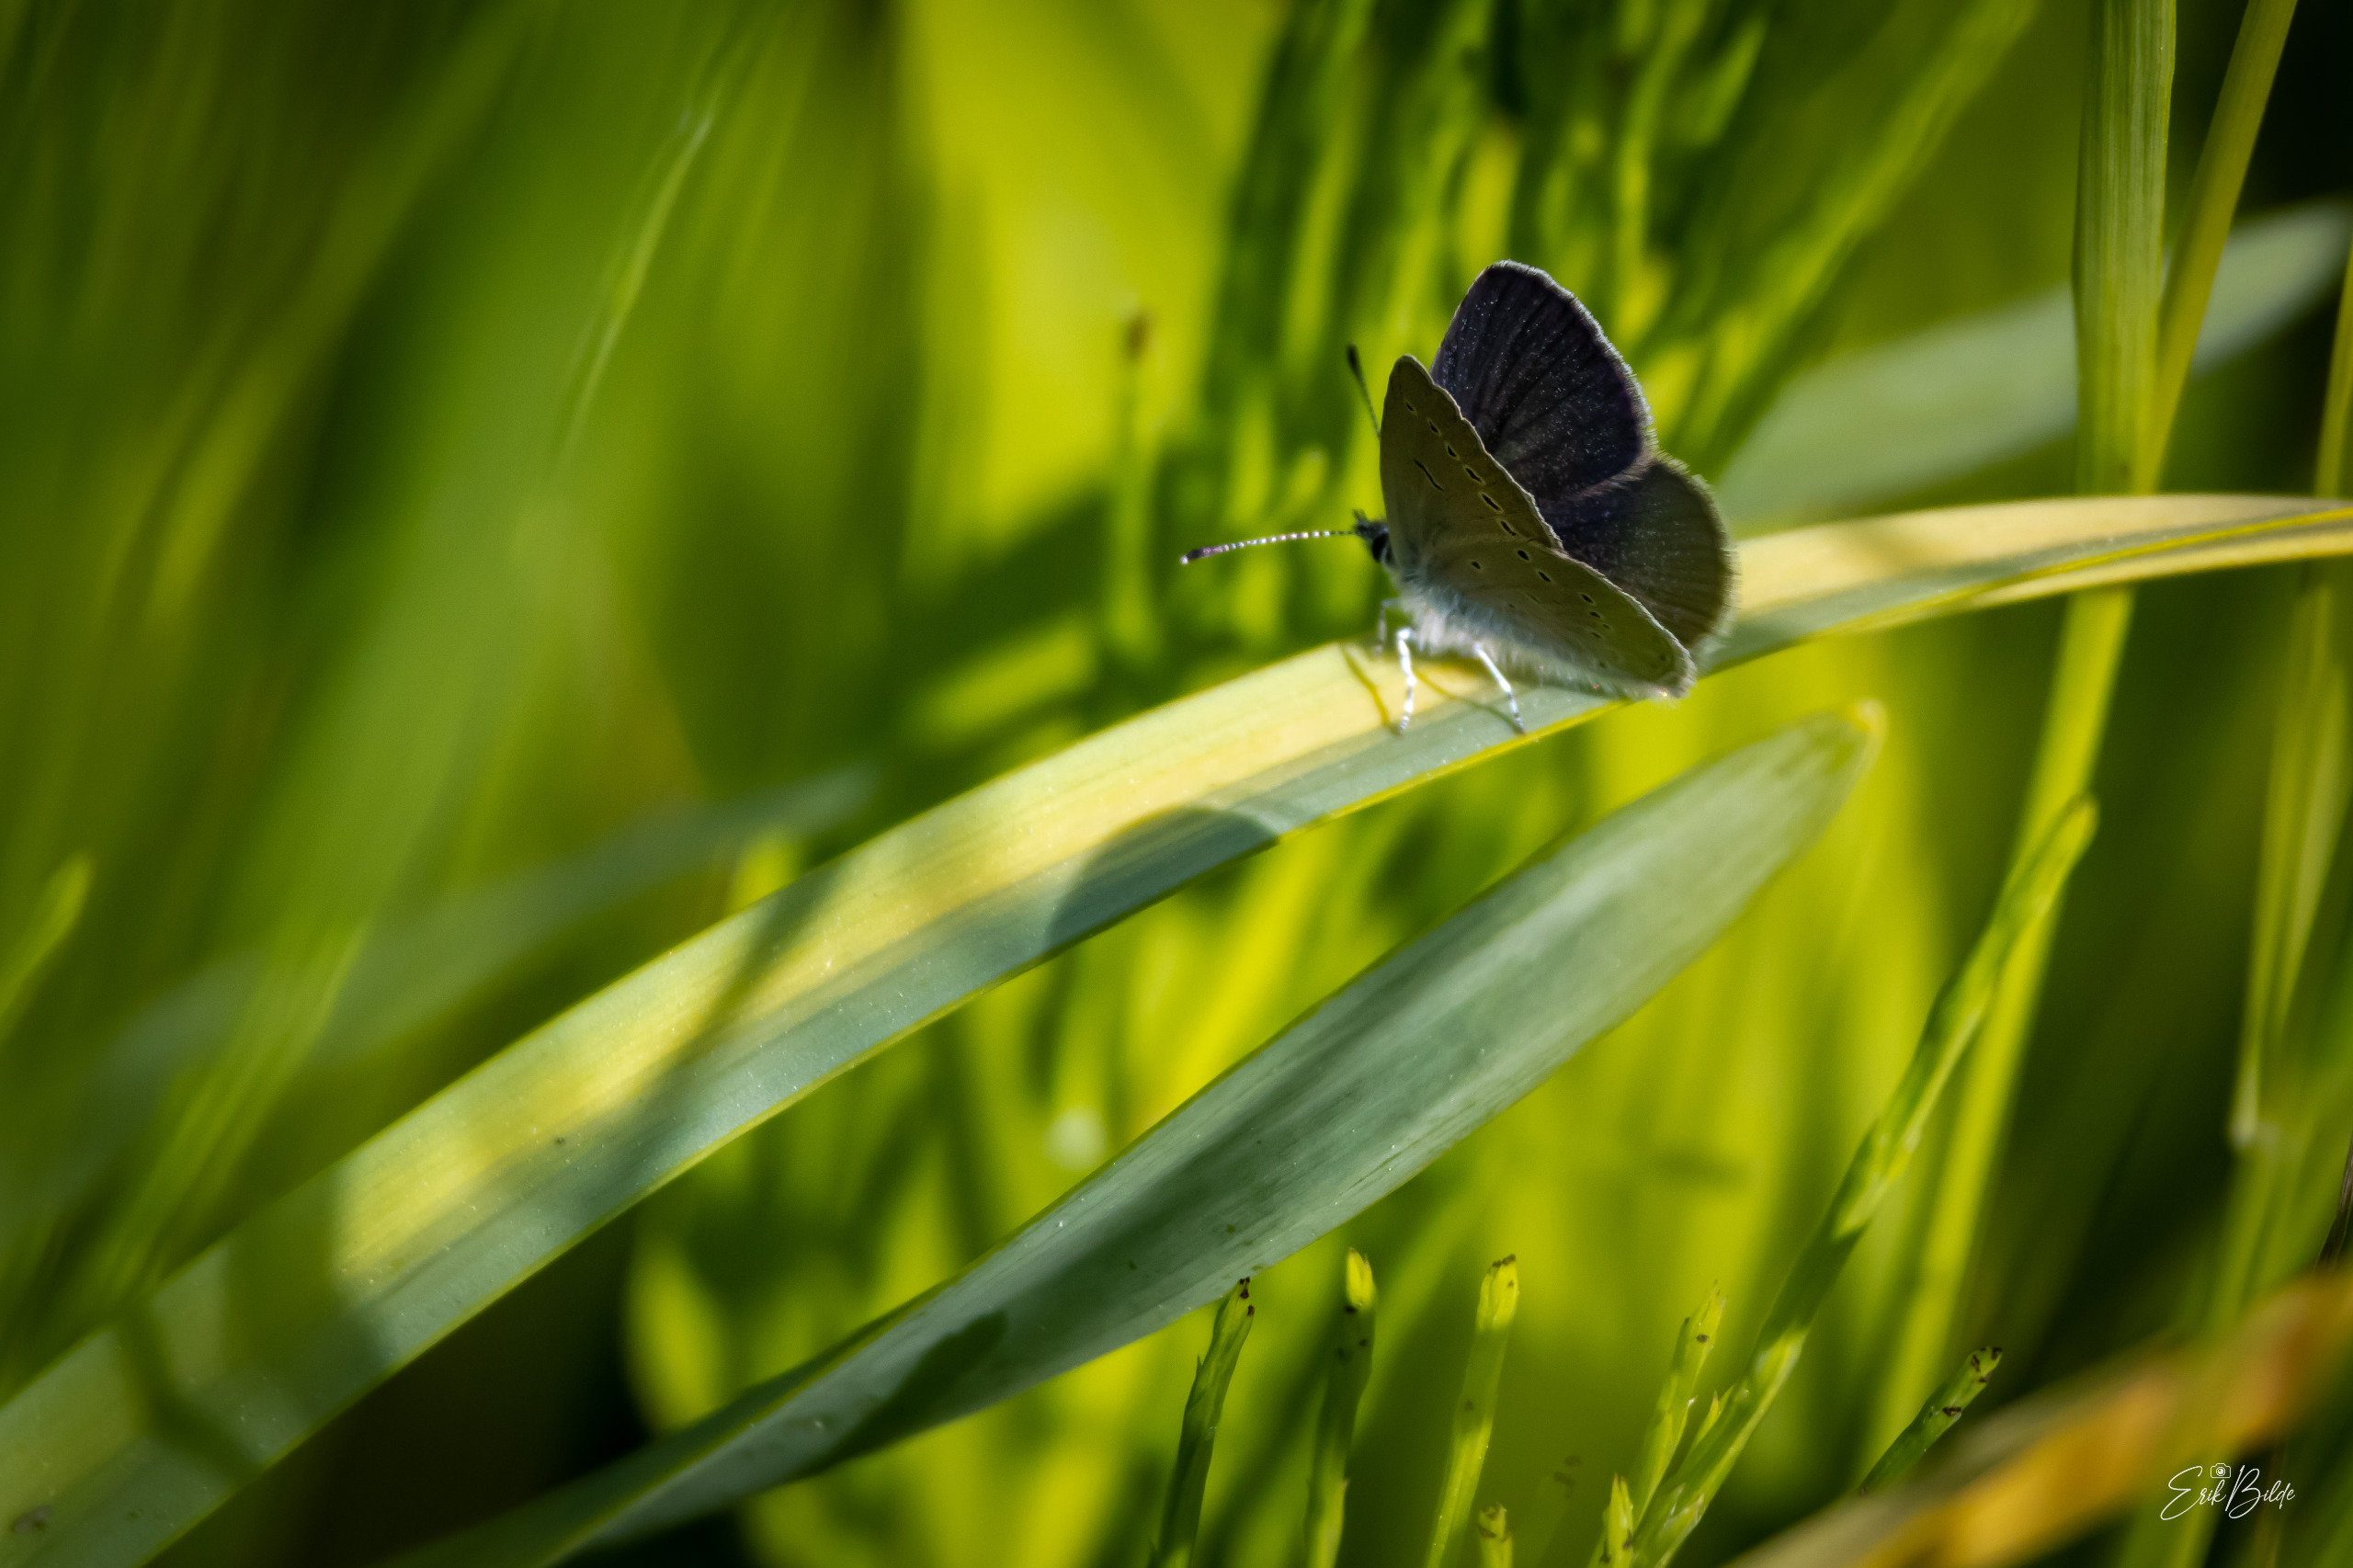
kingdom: Animalia
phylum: Arthropoda
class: Insecta
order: Lepidoptera
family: Lycaenidae
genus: Cupido
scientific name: Cupido minimus
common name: Dværgblåfugl
